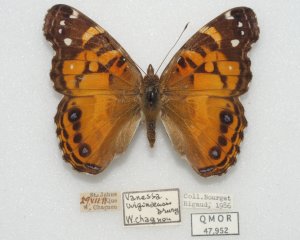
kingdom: Animalia
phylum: Arthropoda
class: Insecta
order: Lepidoptera
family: Nymphalidae
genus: Vanessa
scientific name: Vanessa virginiensis
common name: American Lady
